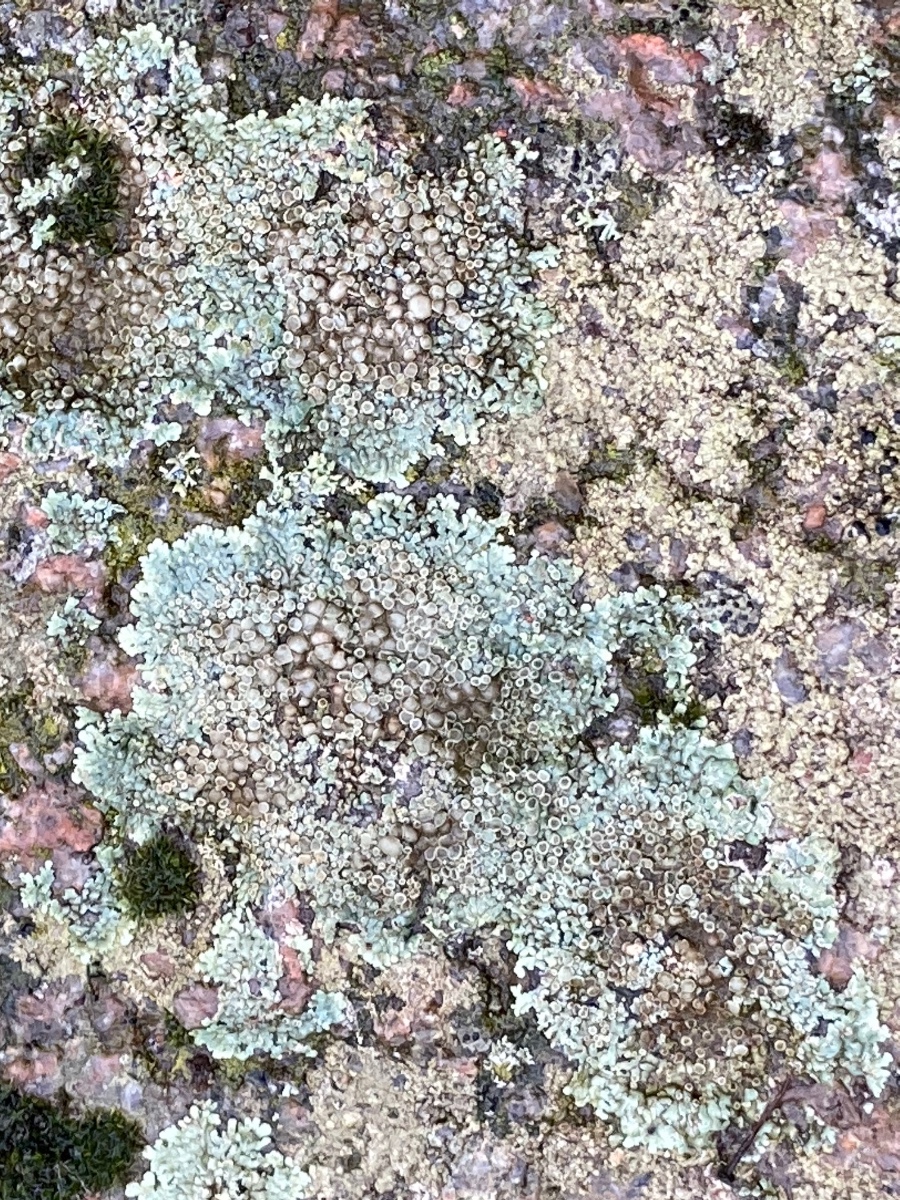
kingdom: Fungi
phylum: Ascomycota
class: Lecanoromycetes
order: Lecanorales
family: Lecanoraceae
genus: Protoparmeliopsis
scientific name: Protoparmeliopsis muralis
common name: randfliget kantskivelav
